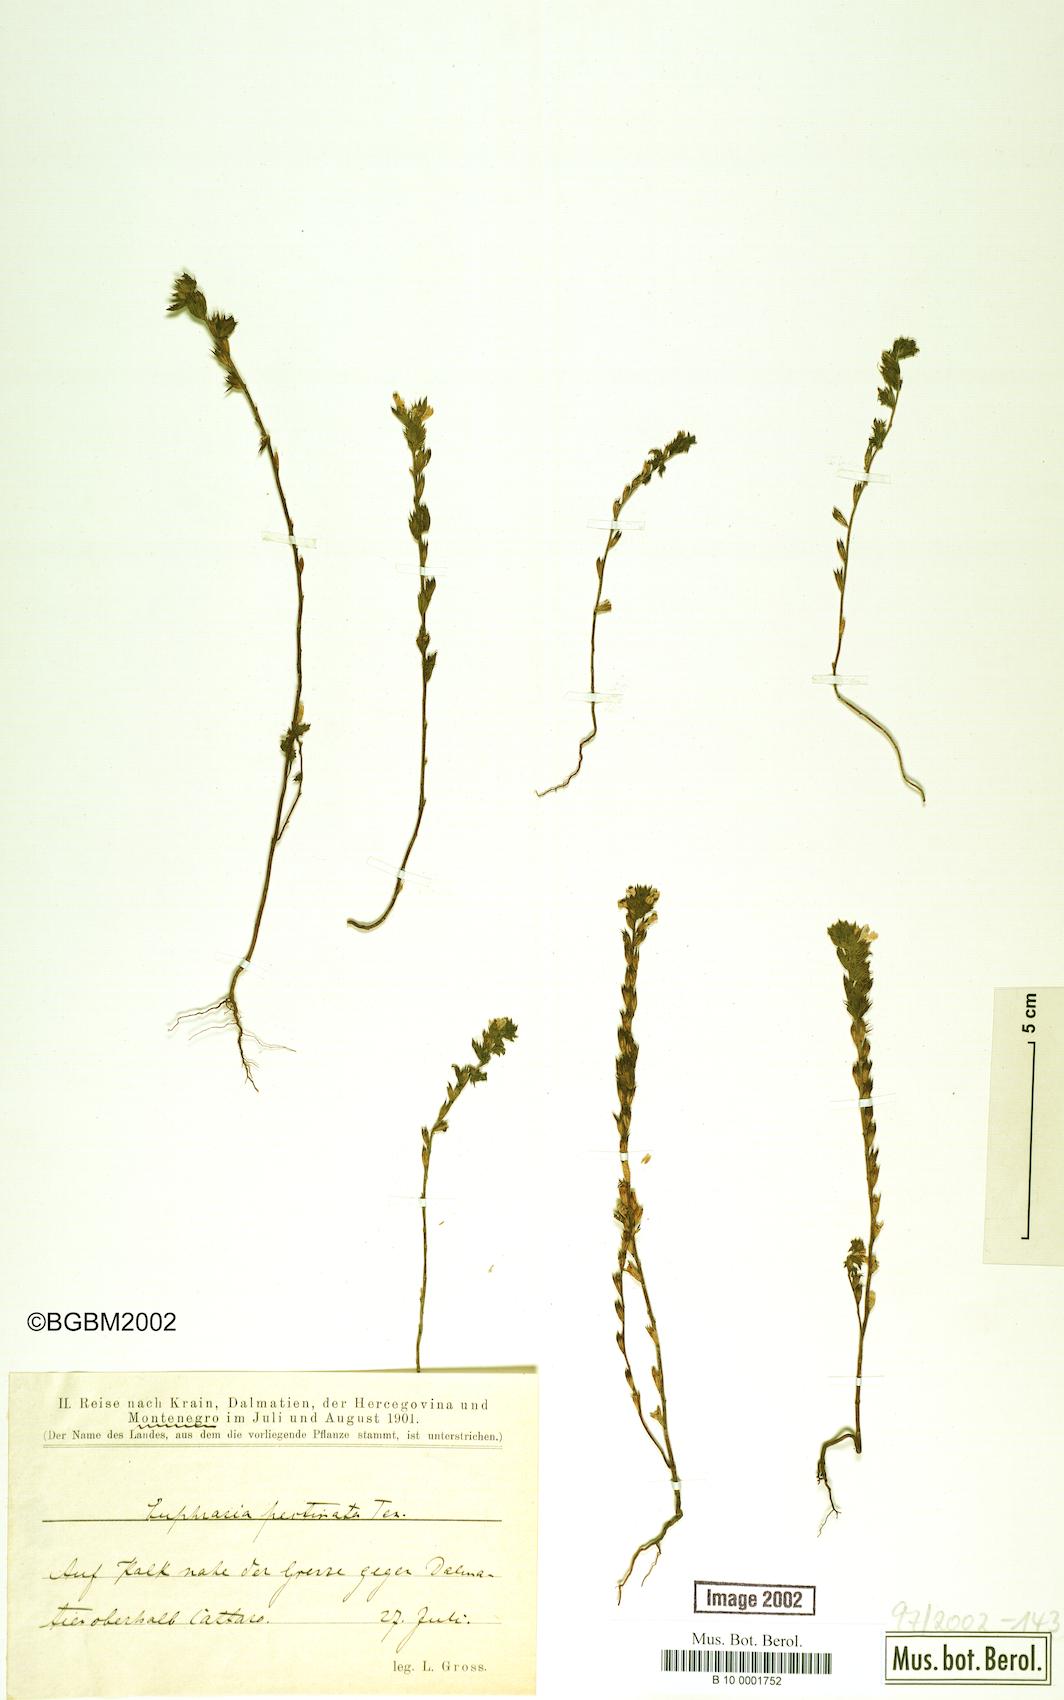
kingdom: Plantae
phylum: Tracheophyta
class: Magnoliopsida
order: Lamiales
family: Orobanchaceae
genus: Euphrasia
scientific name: Euphrasia pectinata
